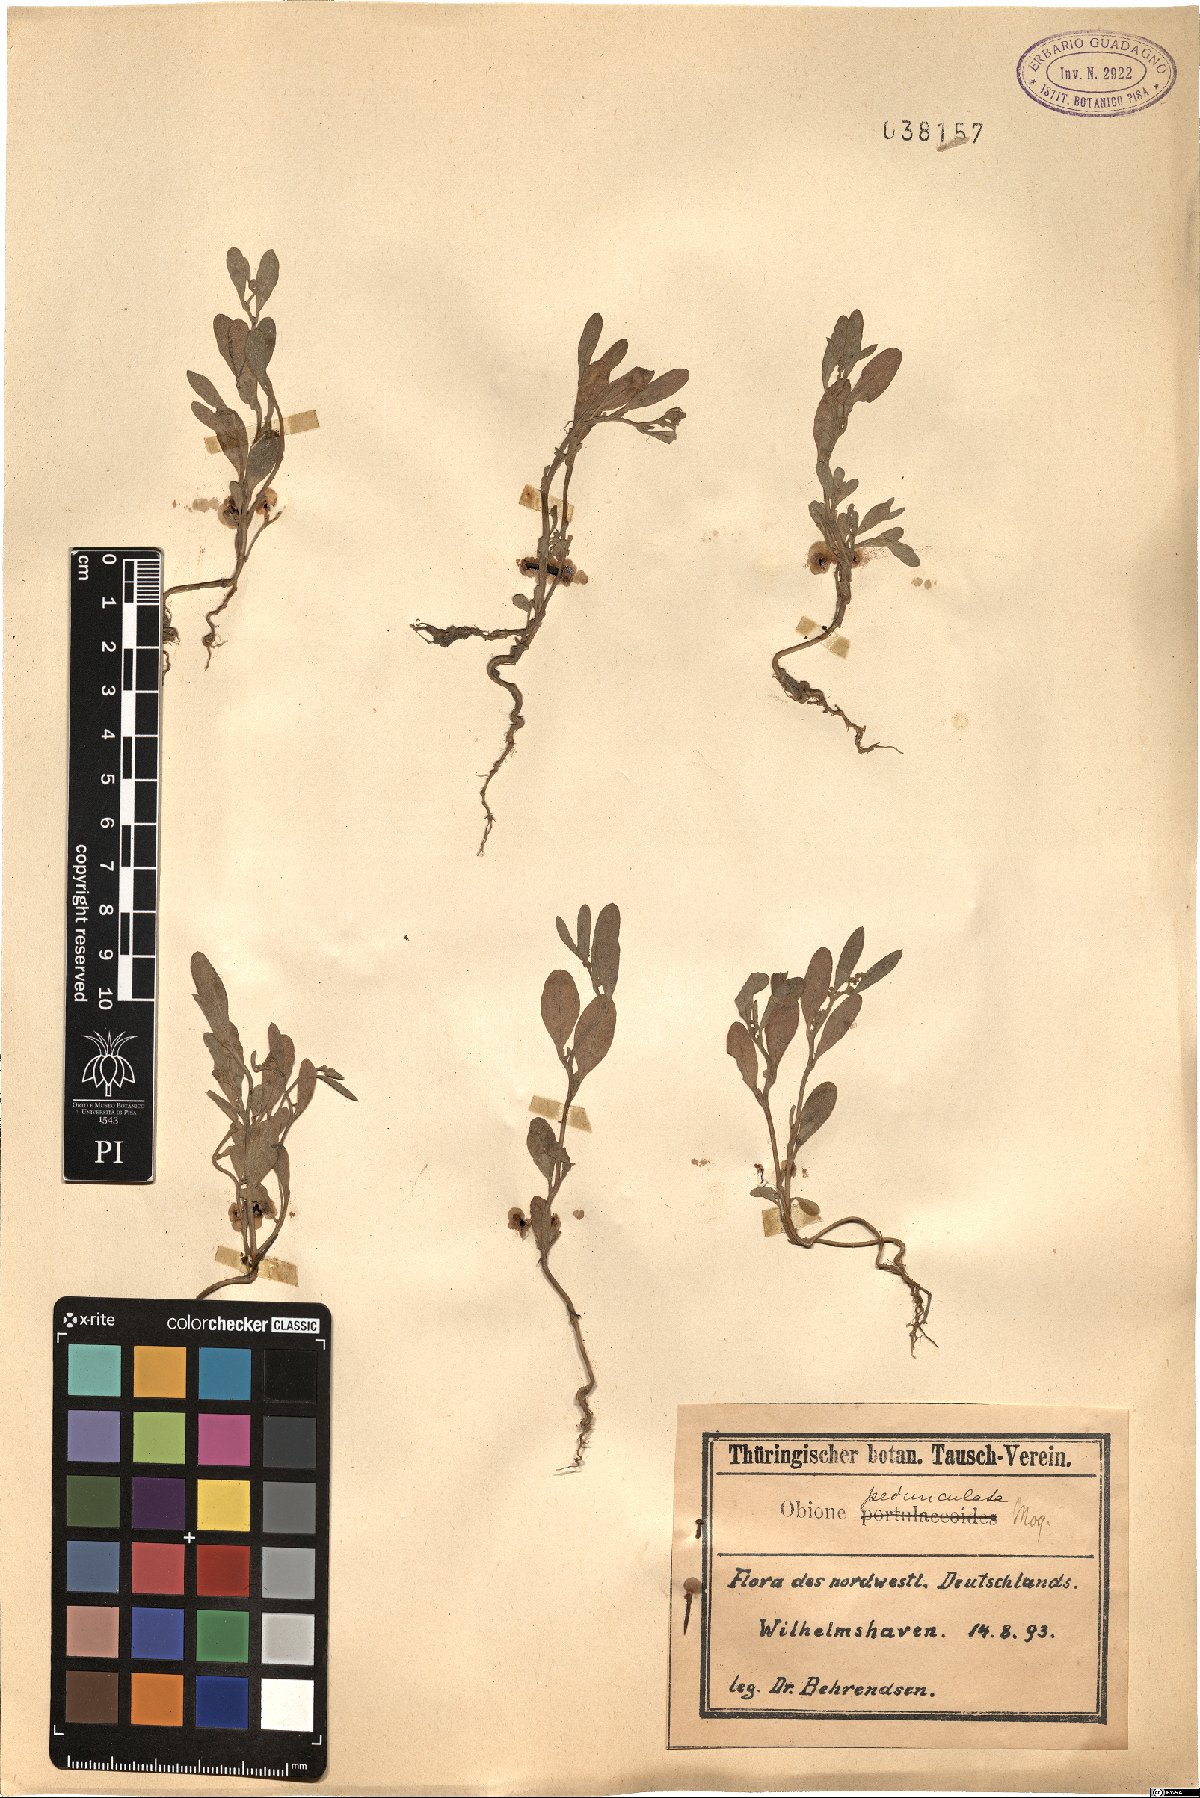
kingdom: Plantae
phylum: Tracheophyta
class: Magnoliopsida
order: Caryophyllales
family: Amaranthaceae
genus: Halimione
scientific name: Halimione pedunculata
